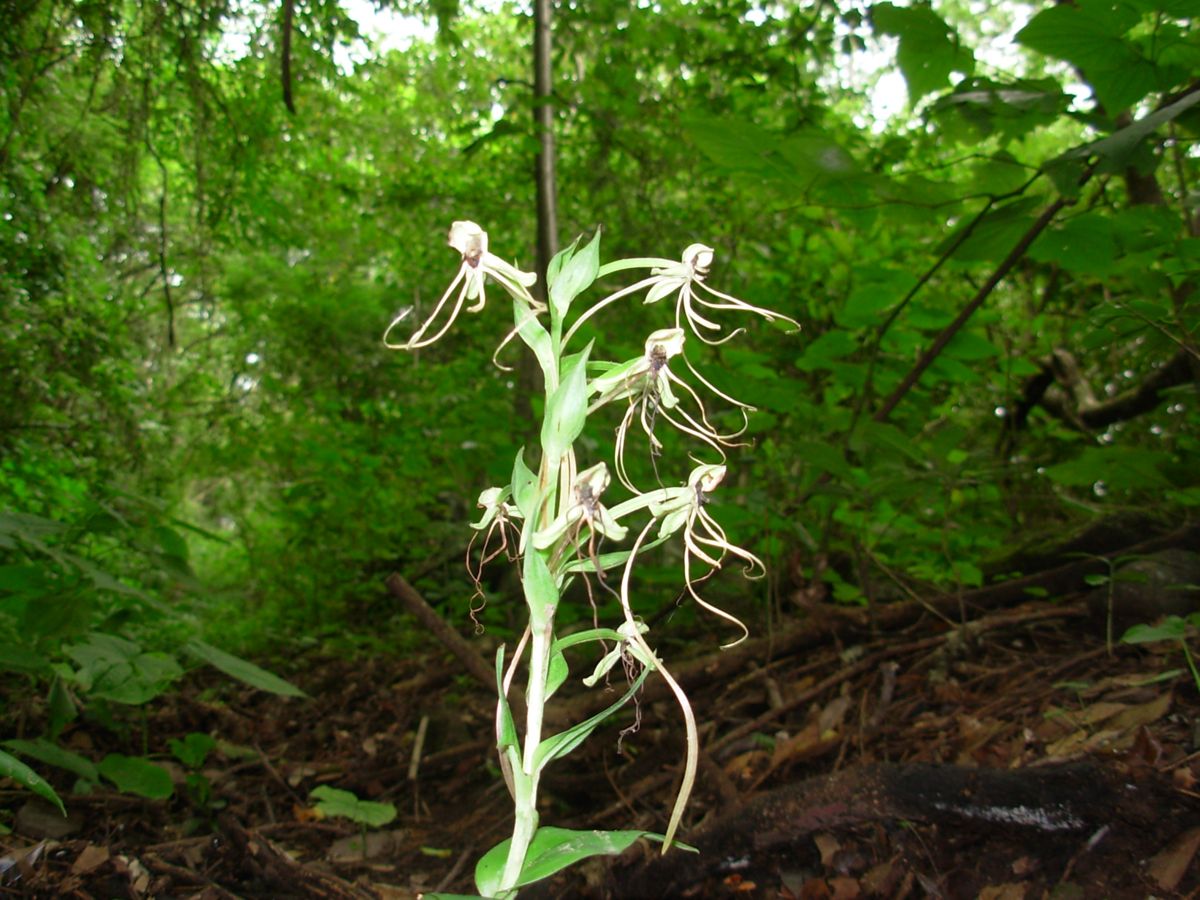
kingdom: Plantae
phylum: Tracheophyta
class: Liliopsida
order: Asparagales
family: Orchidaceae
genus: Habenaria
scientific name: Habenaria quinqueseta
